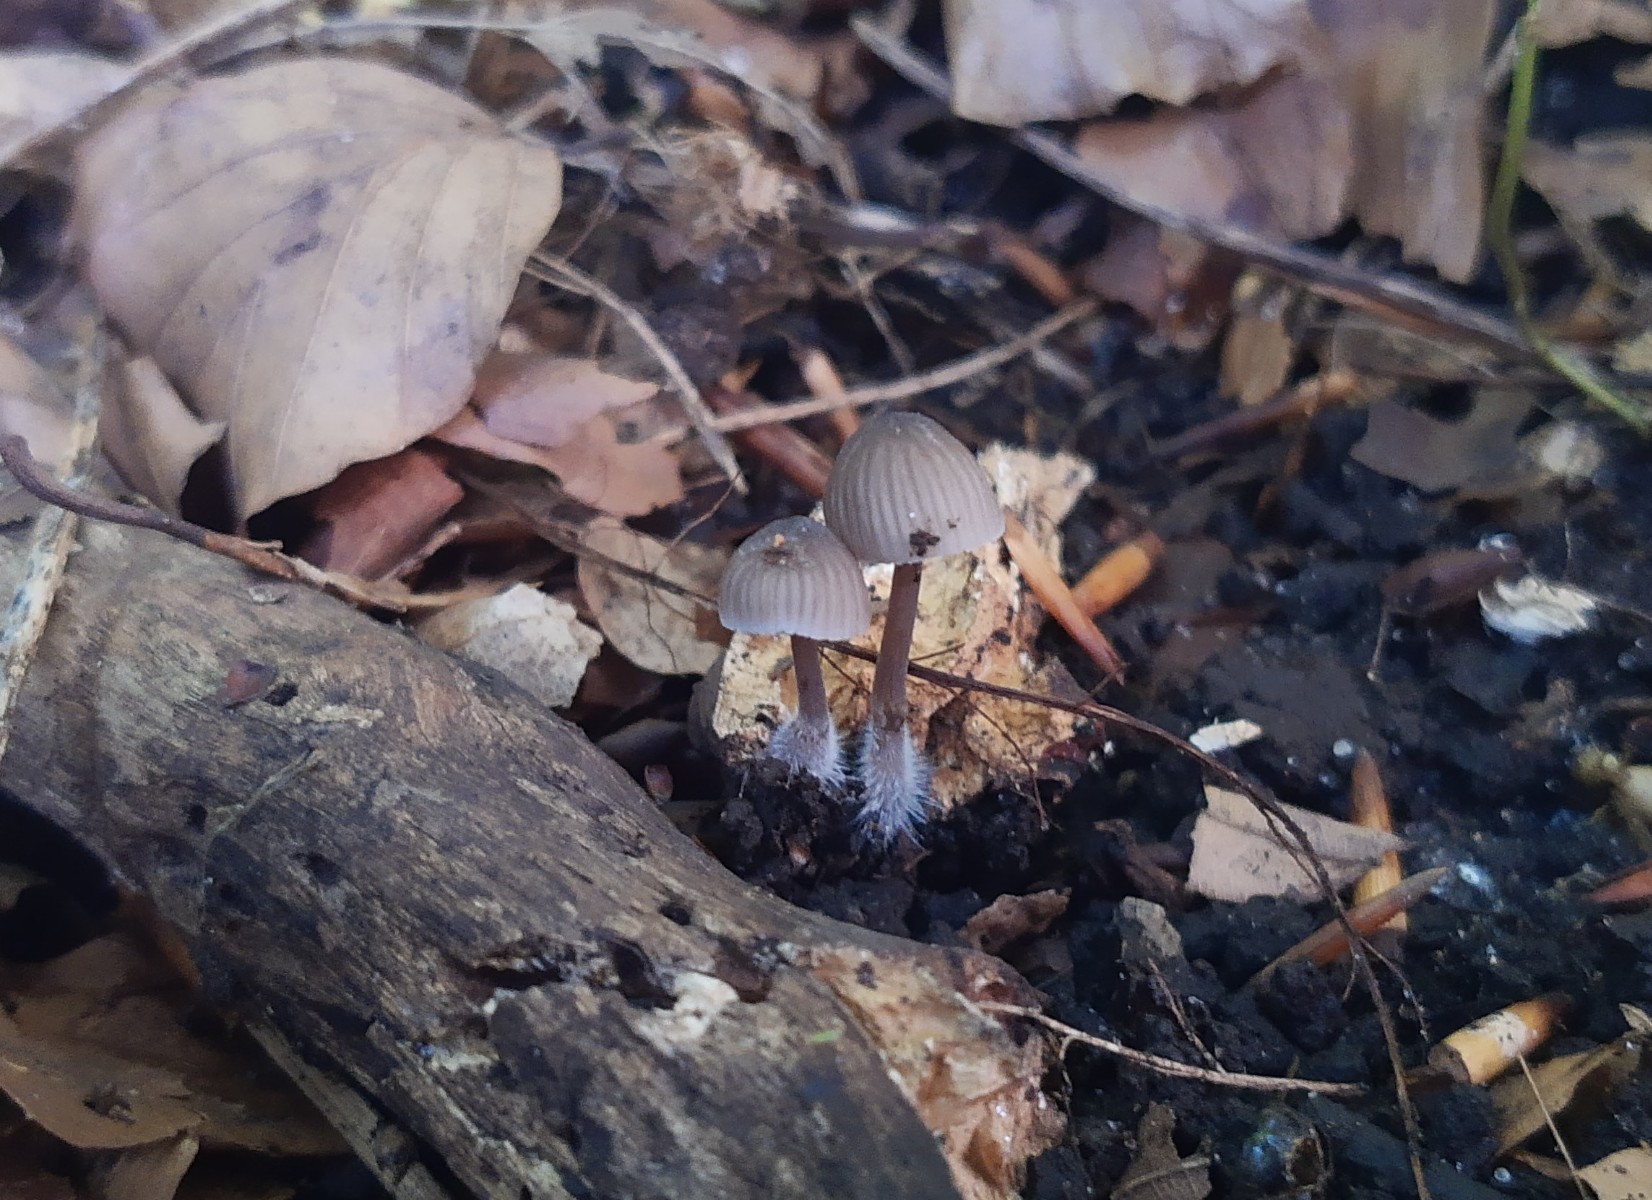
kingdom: Fungi
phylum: Basidiomycota
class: Agaricomycetes
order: Agaricales
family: Mycenaceae
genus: Mycena
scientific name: Mycena
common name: huesvamp
